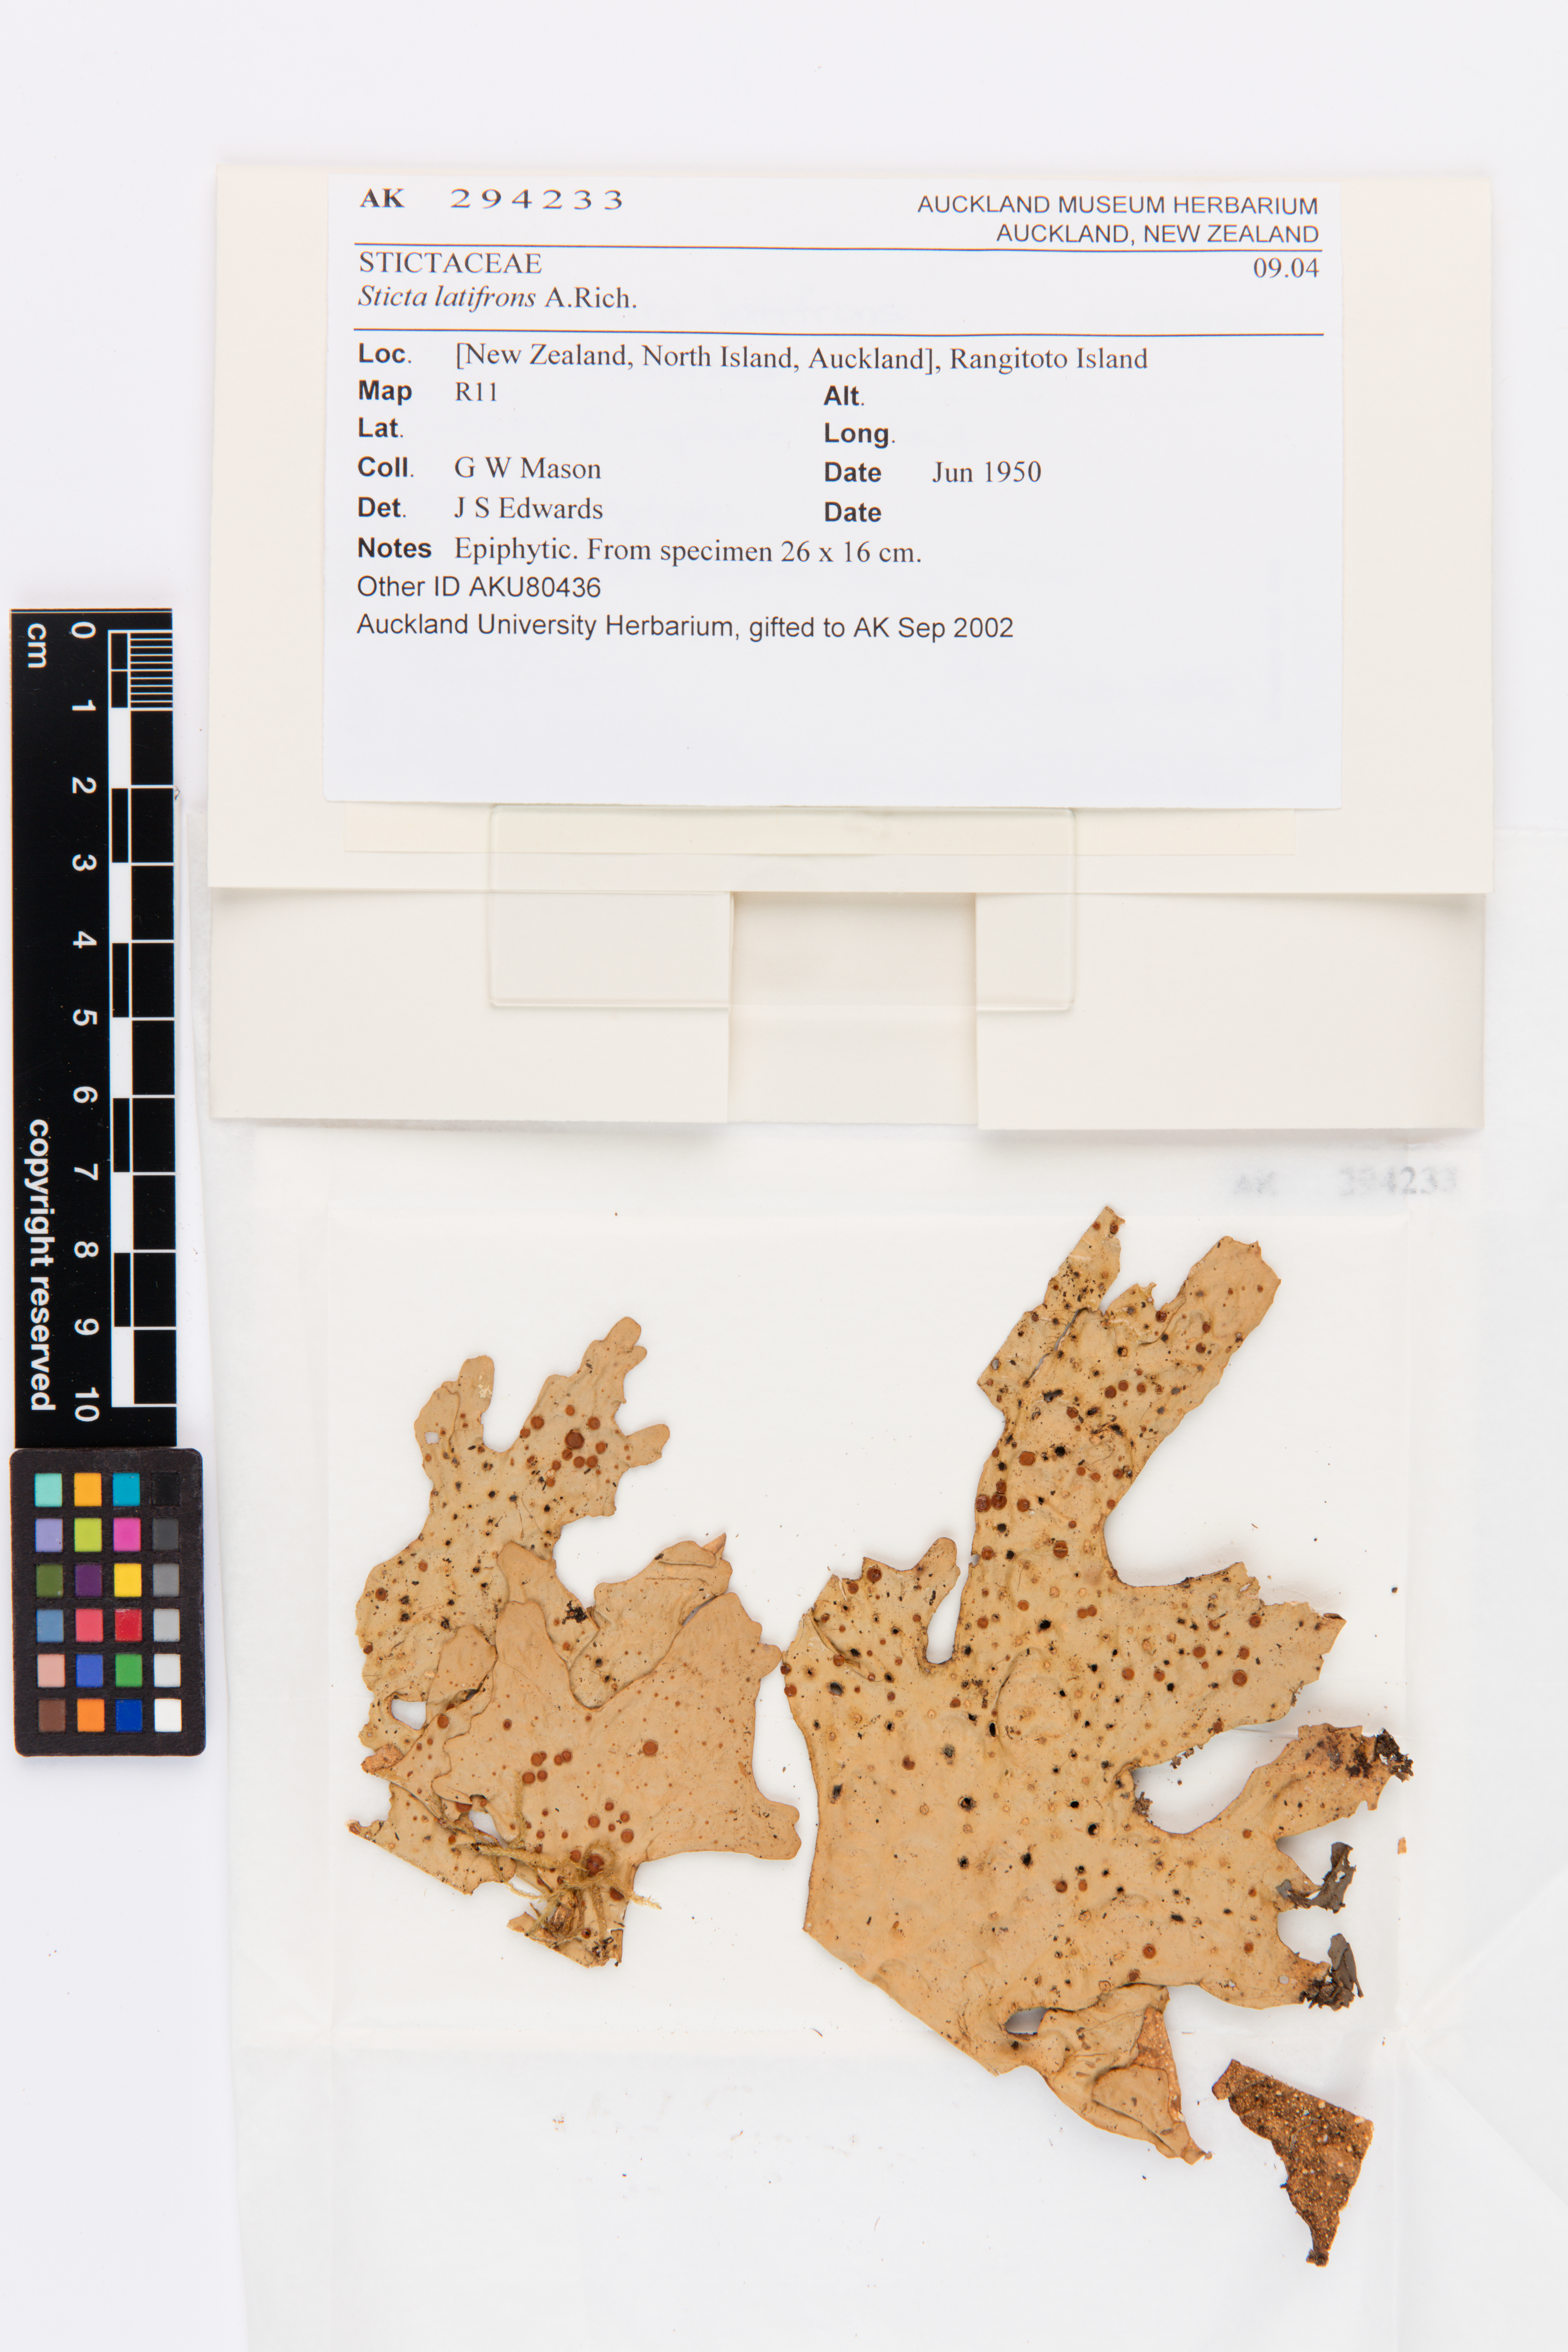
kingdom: Fungi
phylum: Ascomycota
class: Lecanoromycetes
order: Peltigerales
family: Lobariaceae
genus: Sticta
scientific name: Sticta latifrons
